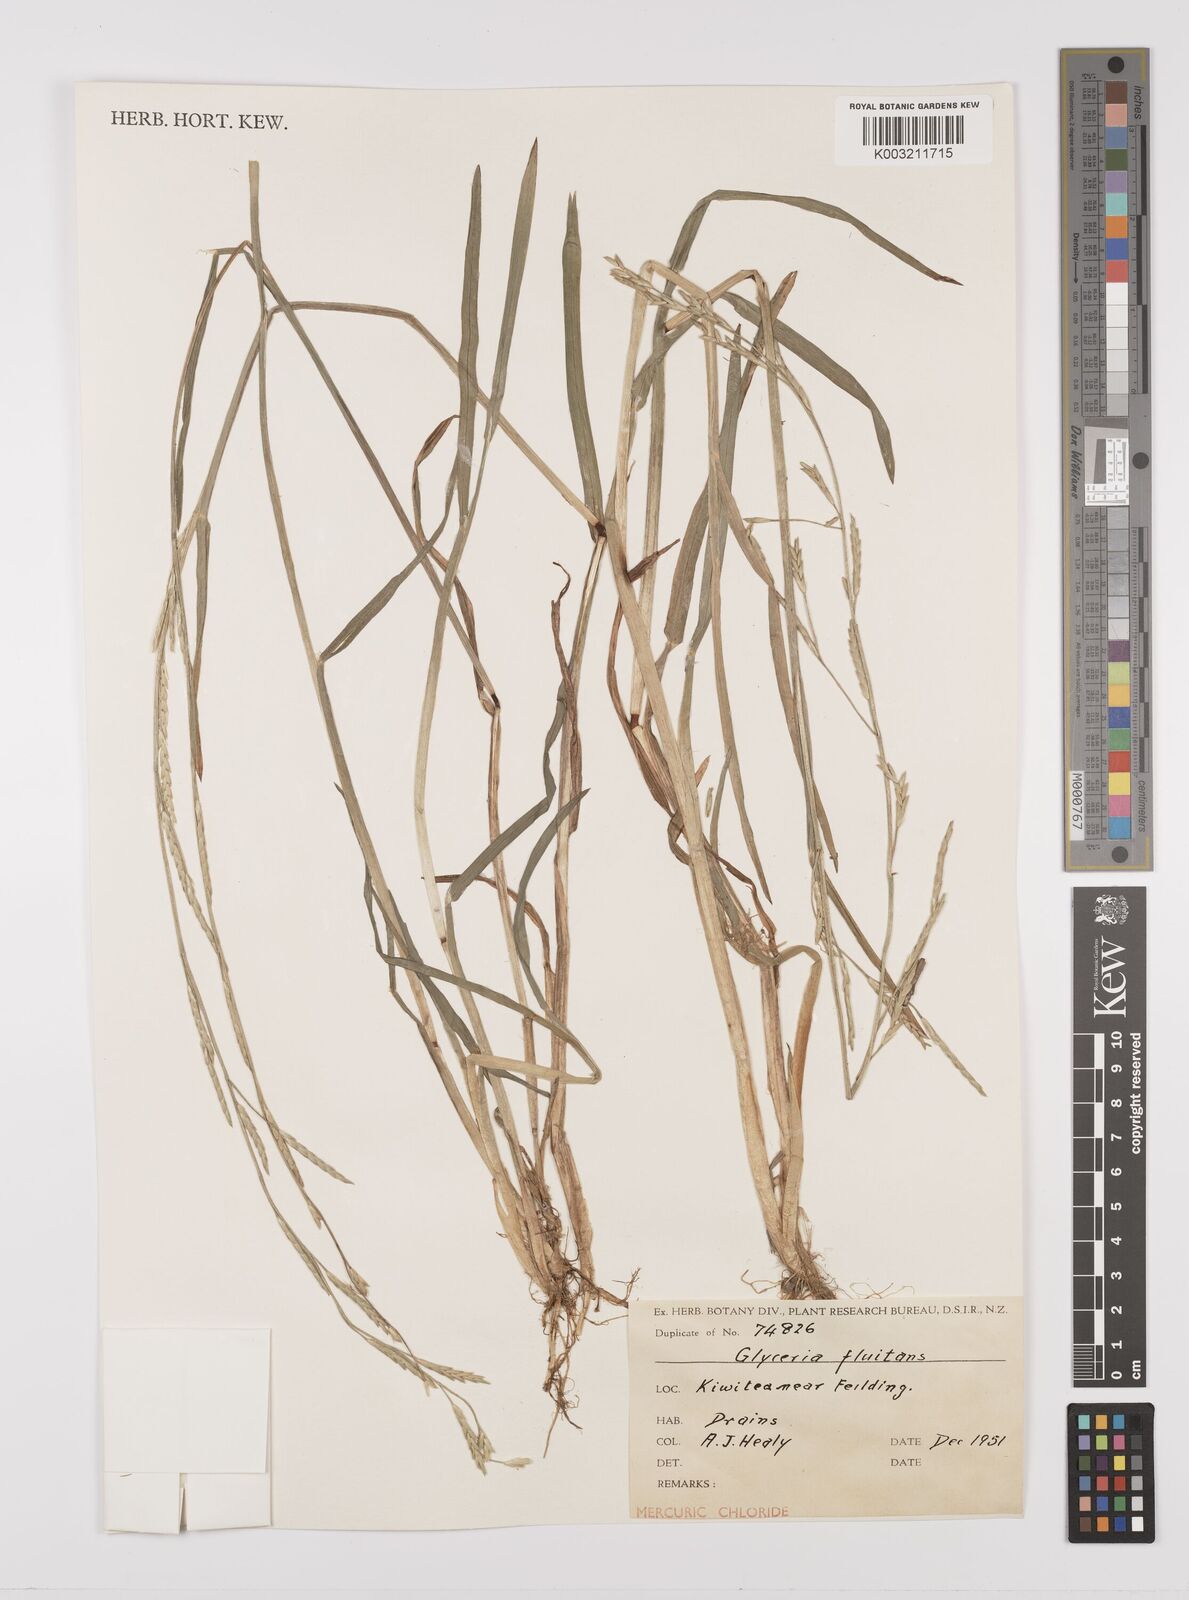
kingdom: Plantae
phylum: Tracheophyta
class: Liliopsida
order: Poales
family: Poaceae
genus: Glyceria
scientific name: Glyceria fluitans
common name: Floating sweet-grass
